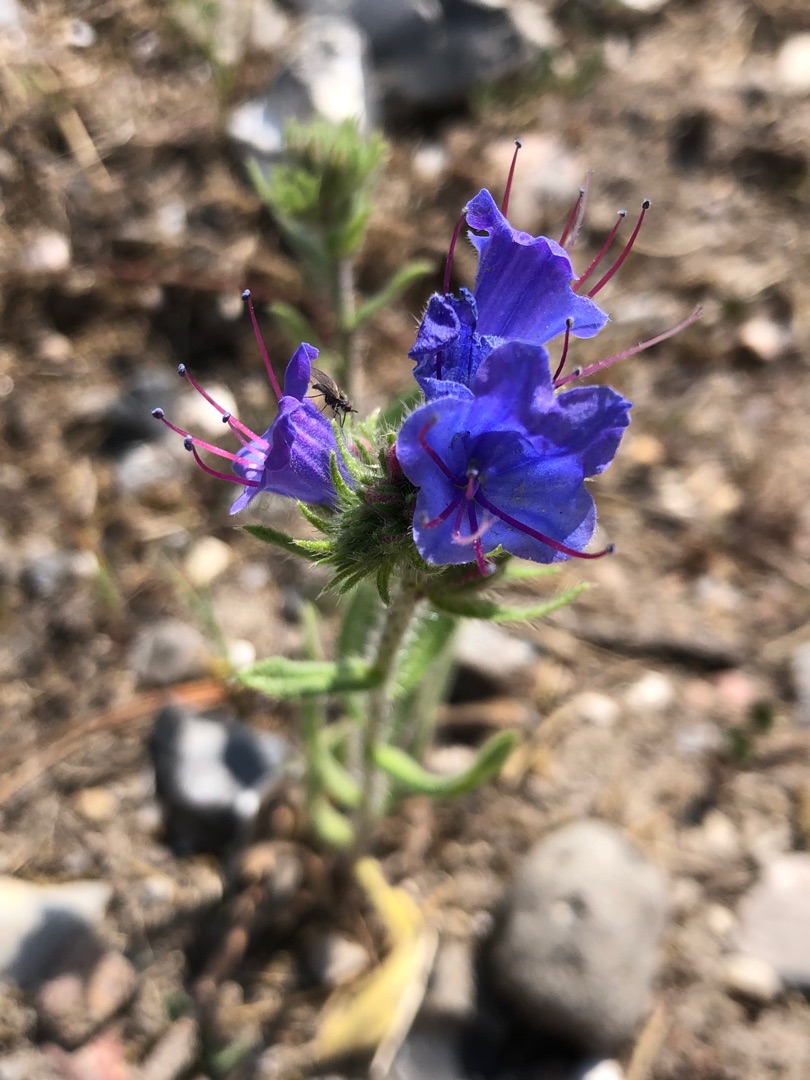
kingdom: Plantae
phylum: Tracheophyta
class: Magnoliopsida
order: Boraginales
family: Boraginaceae
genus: Echium
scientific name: Echium vulgare
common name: Slangehoved
